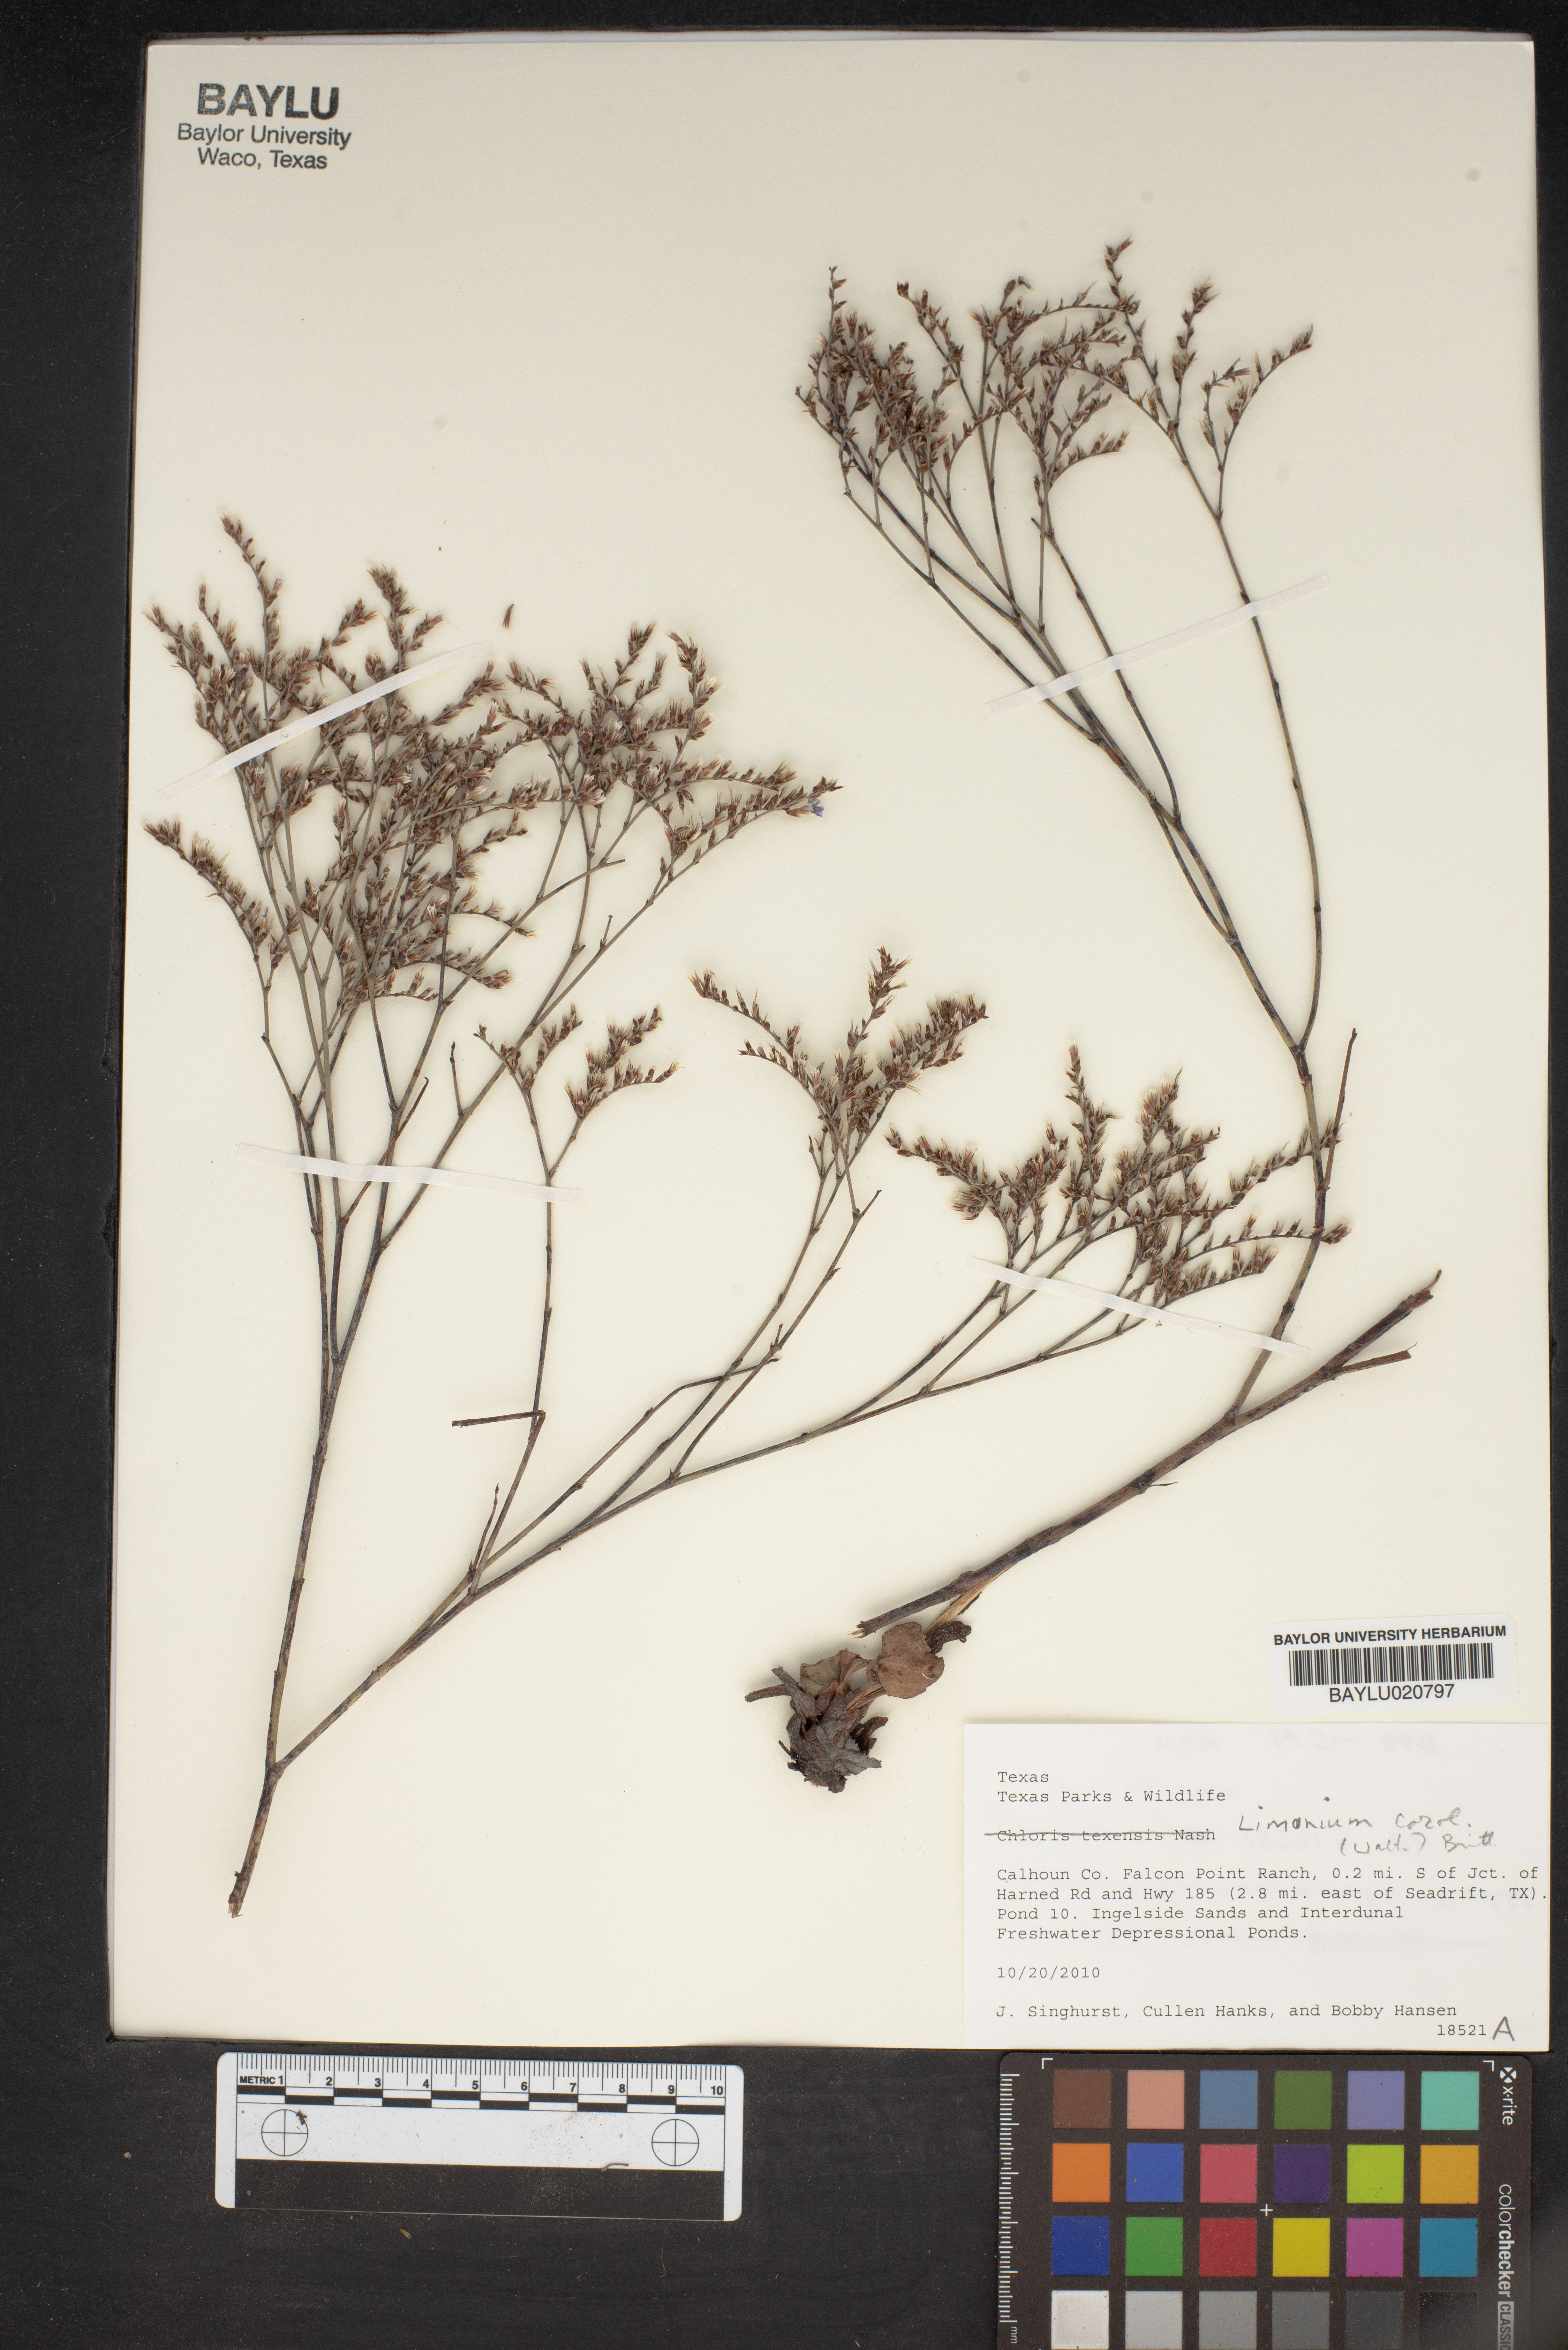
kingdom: Plantae
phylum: Tracheophyta
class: Magnoliopsida
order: Caryophyllales
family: Plumbaginaceae
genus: Limonium
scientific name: Limonium carolinianum
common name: Carolina sea lavender
